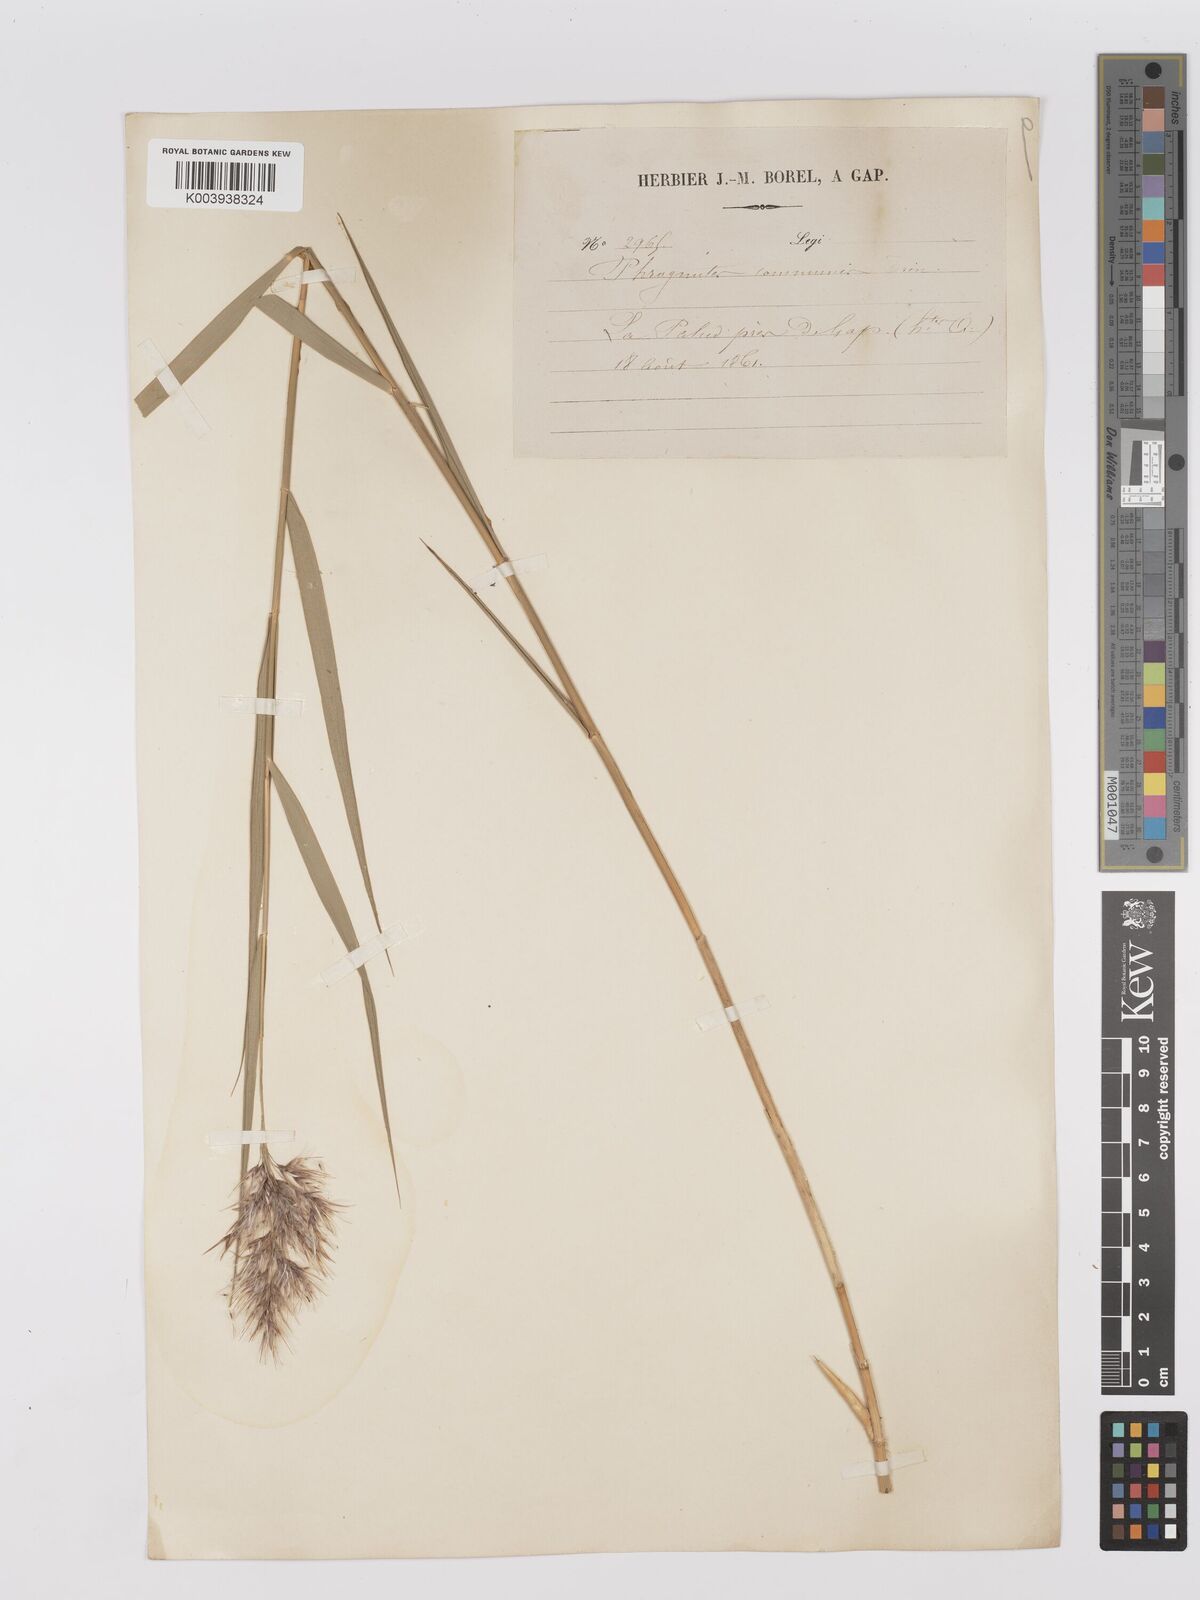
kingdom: Plantae
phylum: Tracheophyta
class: Liliopsida
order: Poales
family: Poaceae
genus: Phragmites
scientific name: Phragmites australis
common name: Common reed
